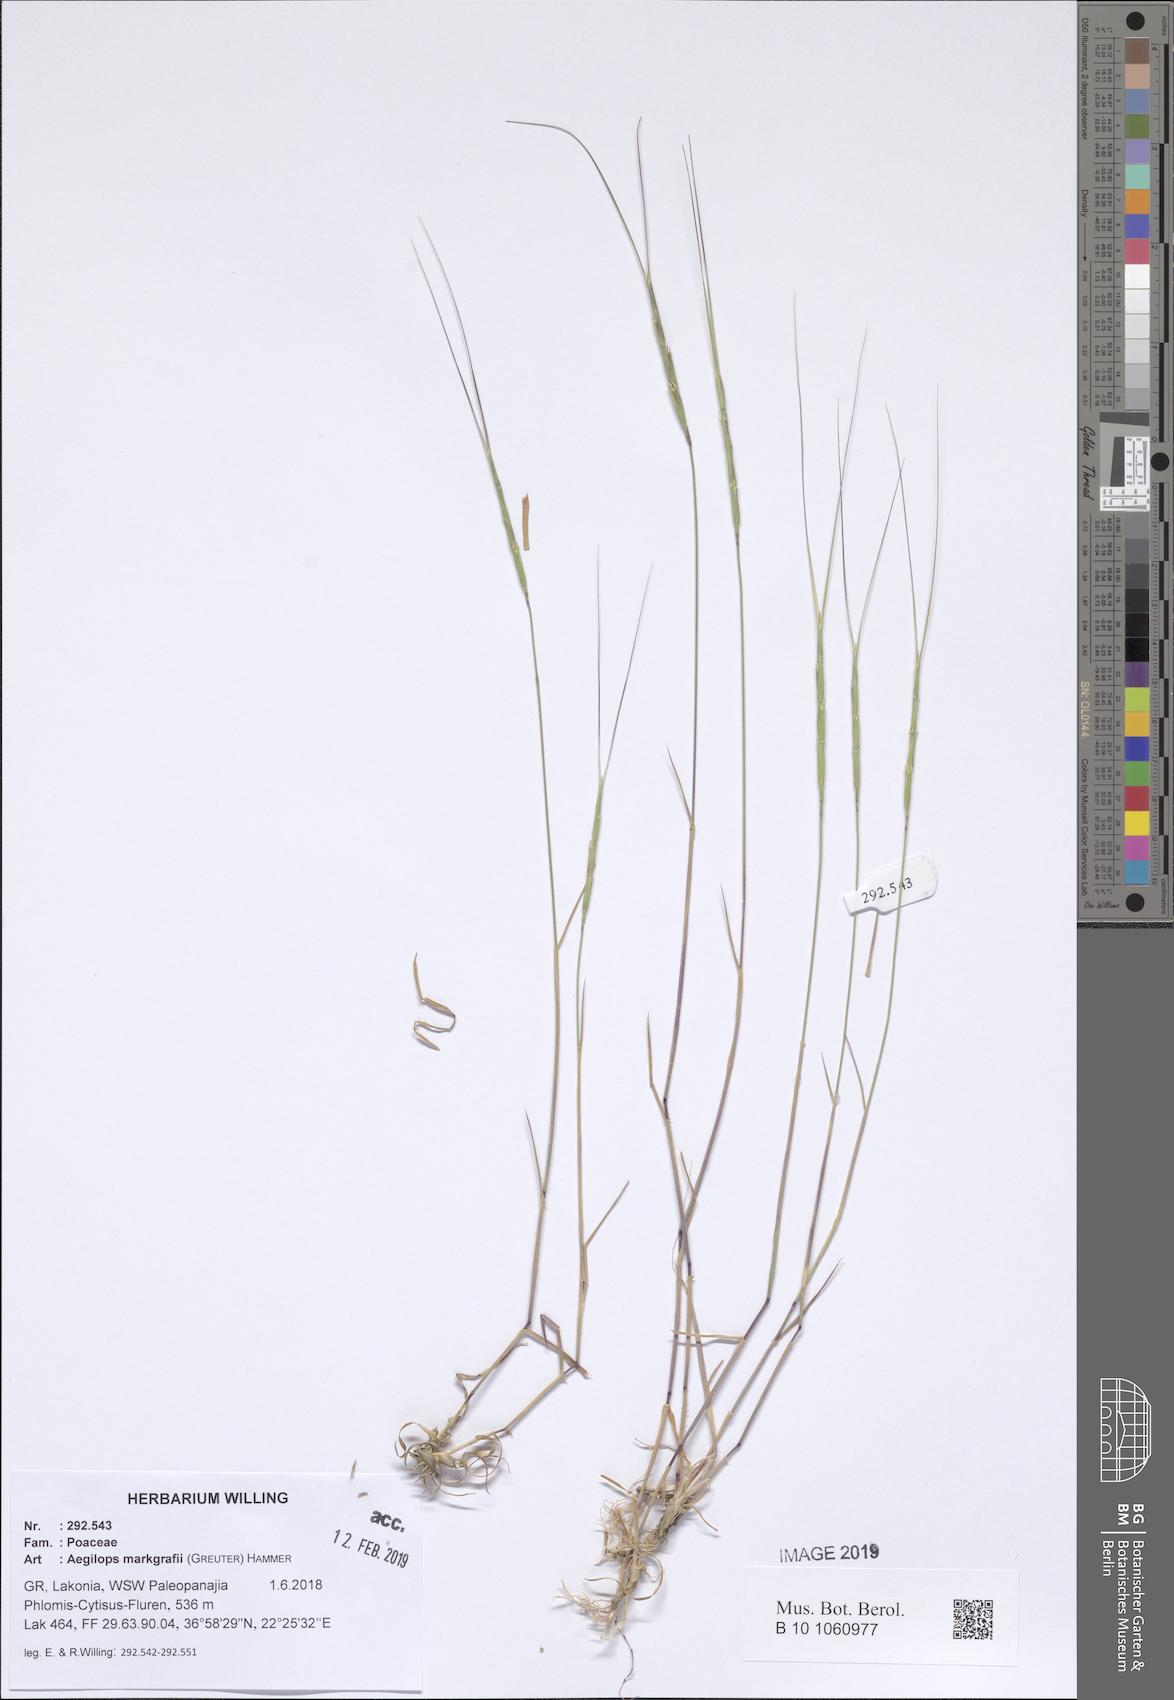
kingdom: Plantae
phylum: Tracheophyta
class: Liliopsida
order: Poales
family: Poaceae
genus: Aegilops
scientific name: Aegilops caudata
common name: Cretan hard-grass
